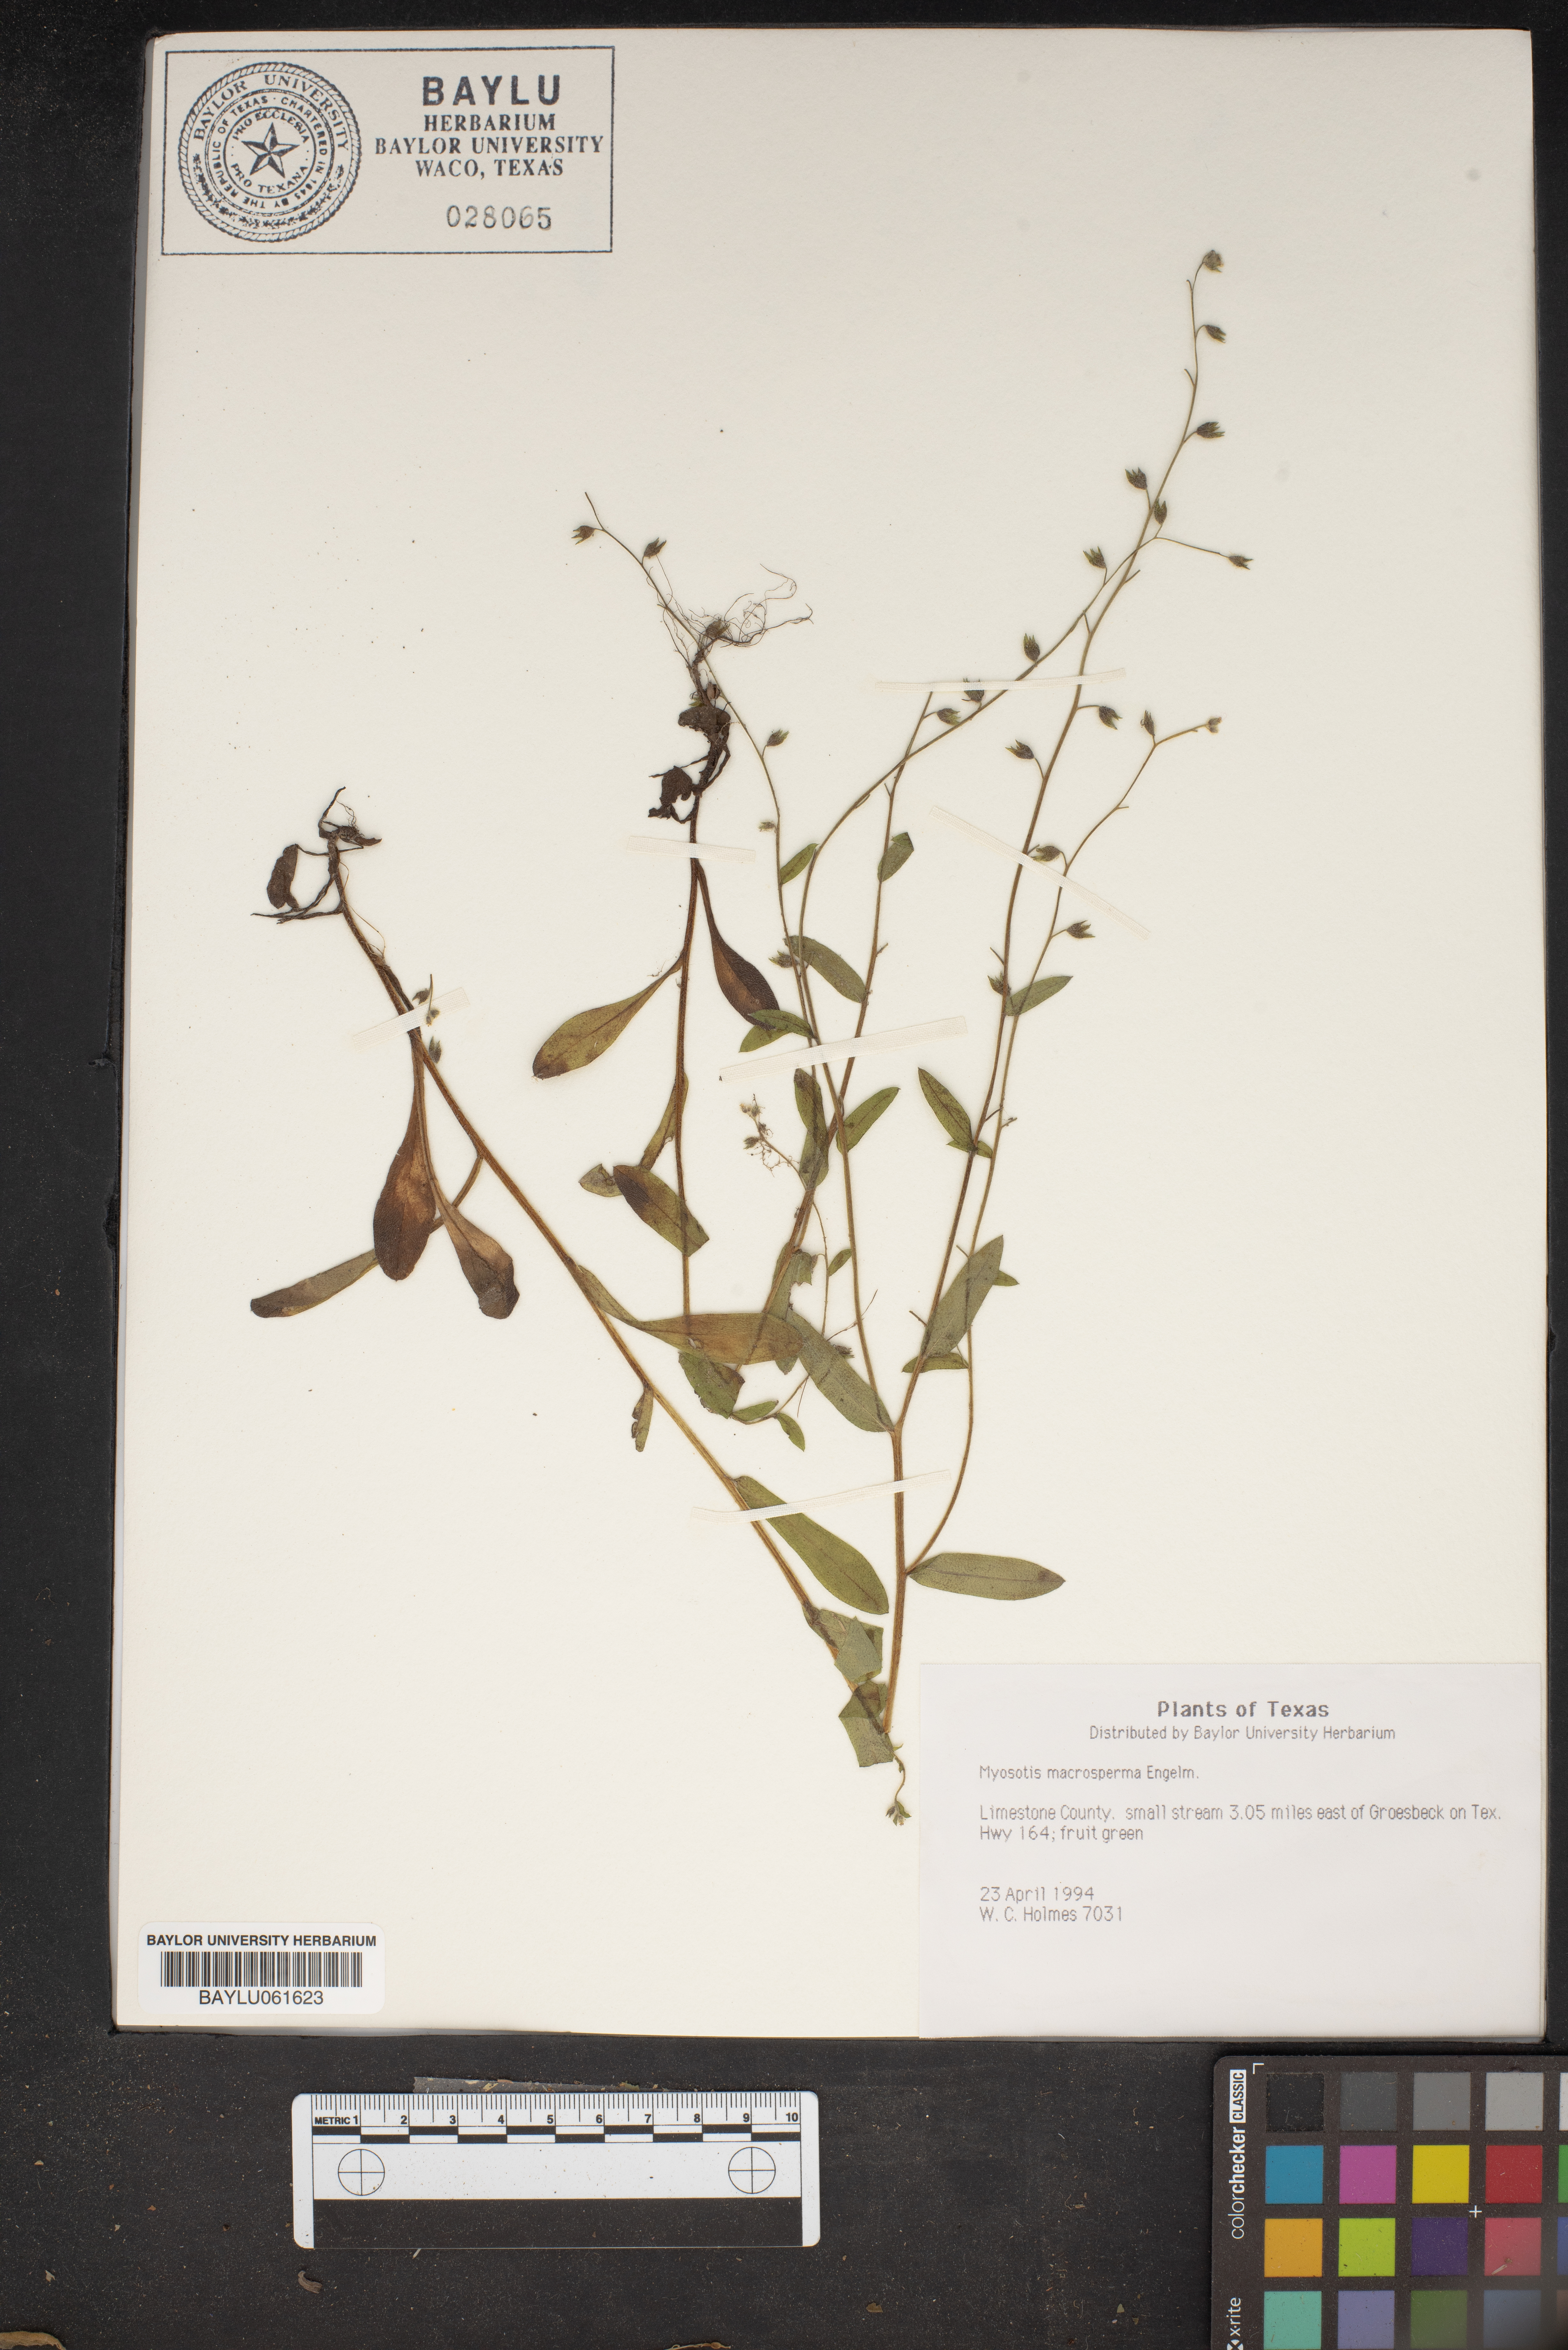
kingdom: Plantae
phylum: Tracheophyta
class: Magnoliopsida
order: Boraginales
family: Boraginaceae
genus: Myosotis
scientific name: Myosotis macrosperma
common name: Large-seed forget-me-not
